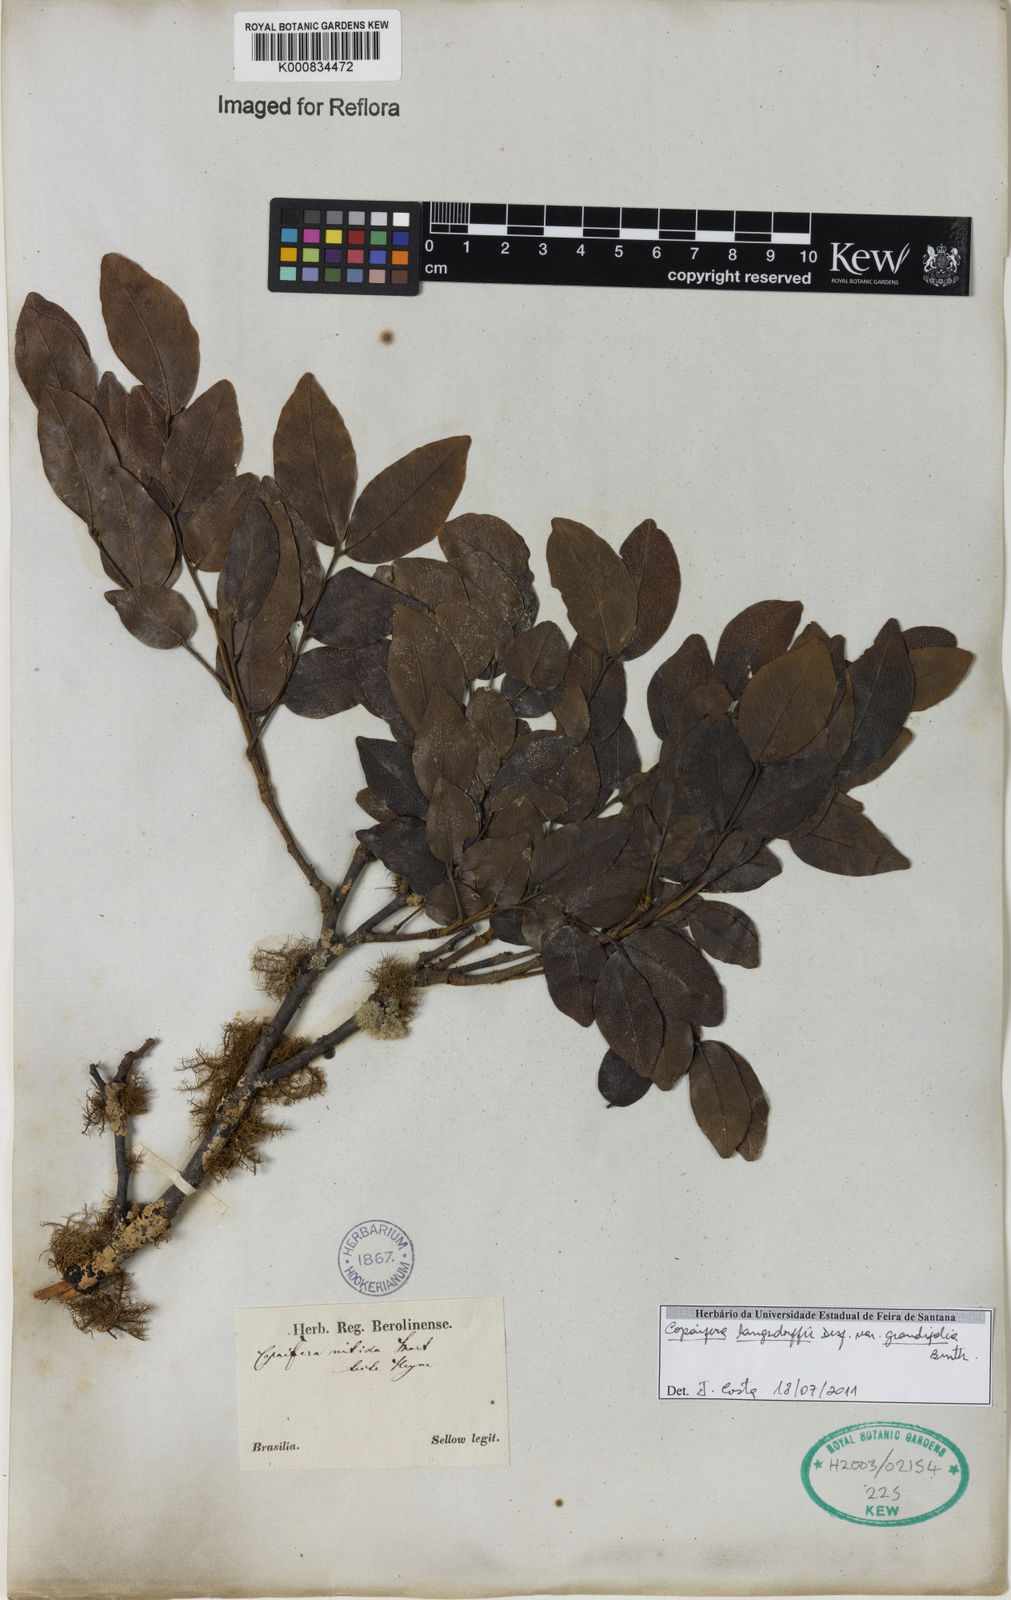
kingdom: Plantae
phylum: Tracheophyta
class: Magnoliopsida
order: Fabales
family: Fabaceae
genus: Copaifera
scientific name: Copaifera langsdorffii
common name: Brazilian diesel tree
